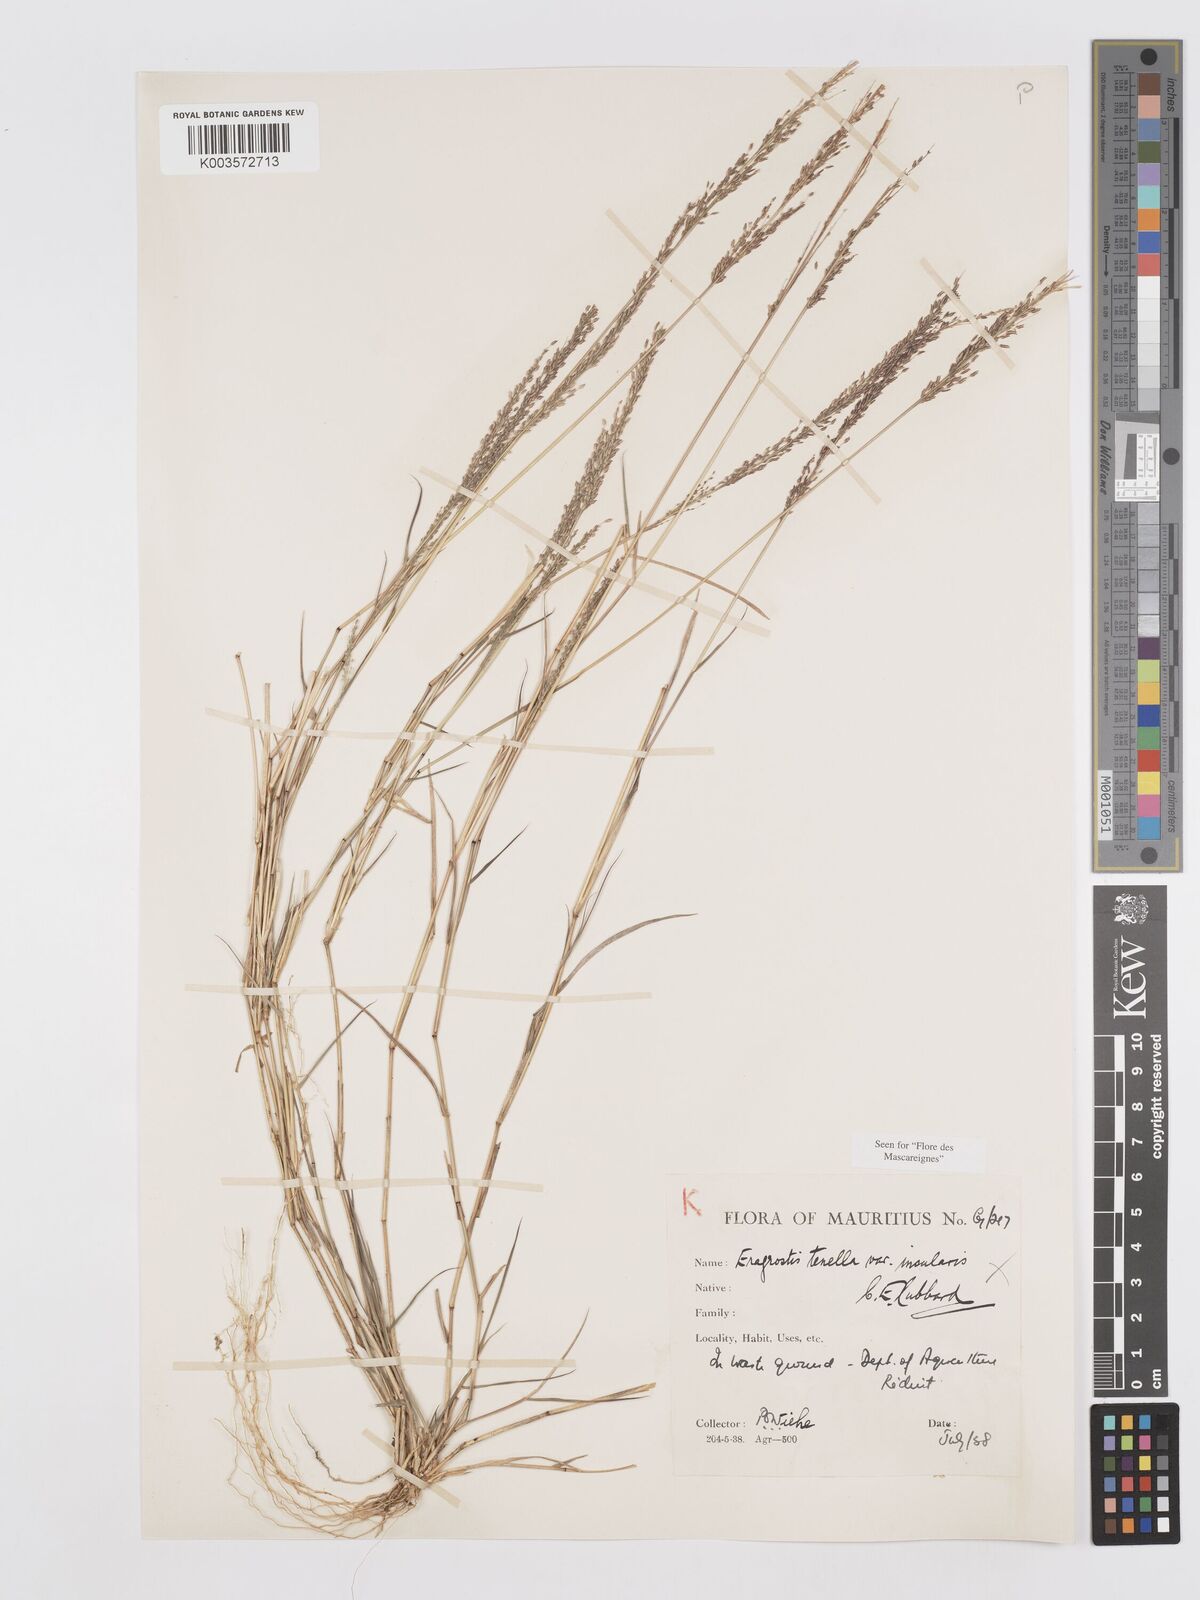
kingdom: Plantae
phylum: Tracheophyta
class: Liliopsida
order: Poales
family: Poaceae
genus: Eragrostis
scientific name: Eragrostis tenella
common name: Japanese lovegrass
